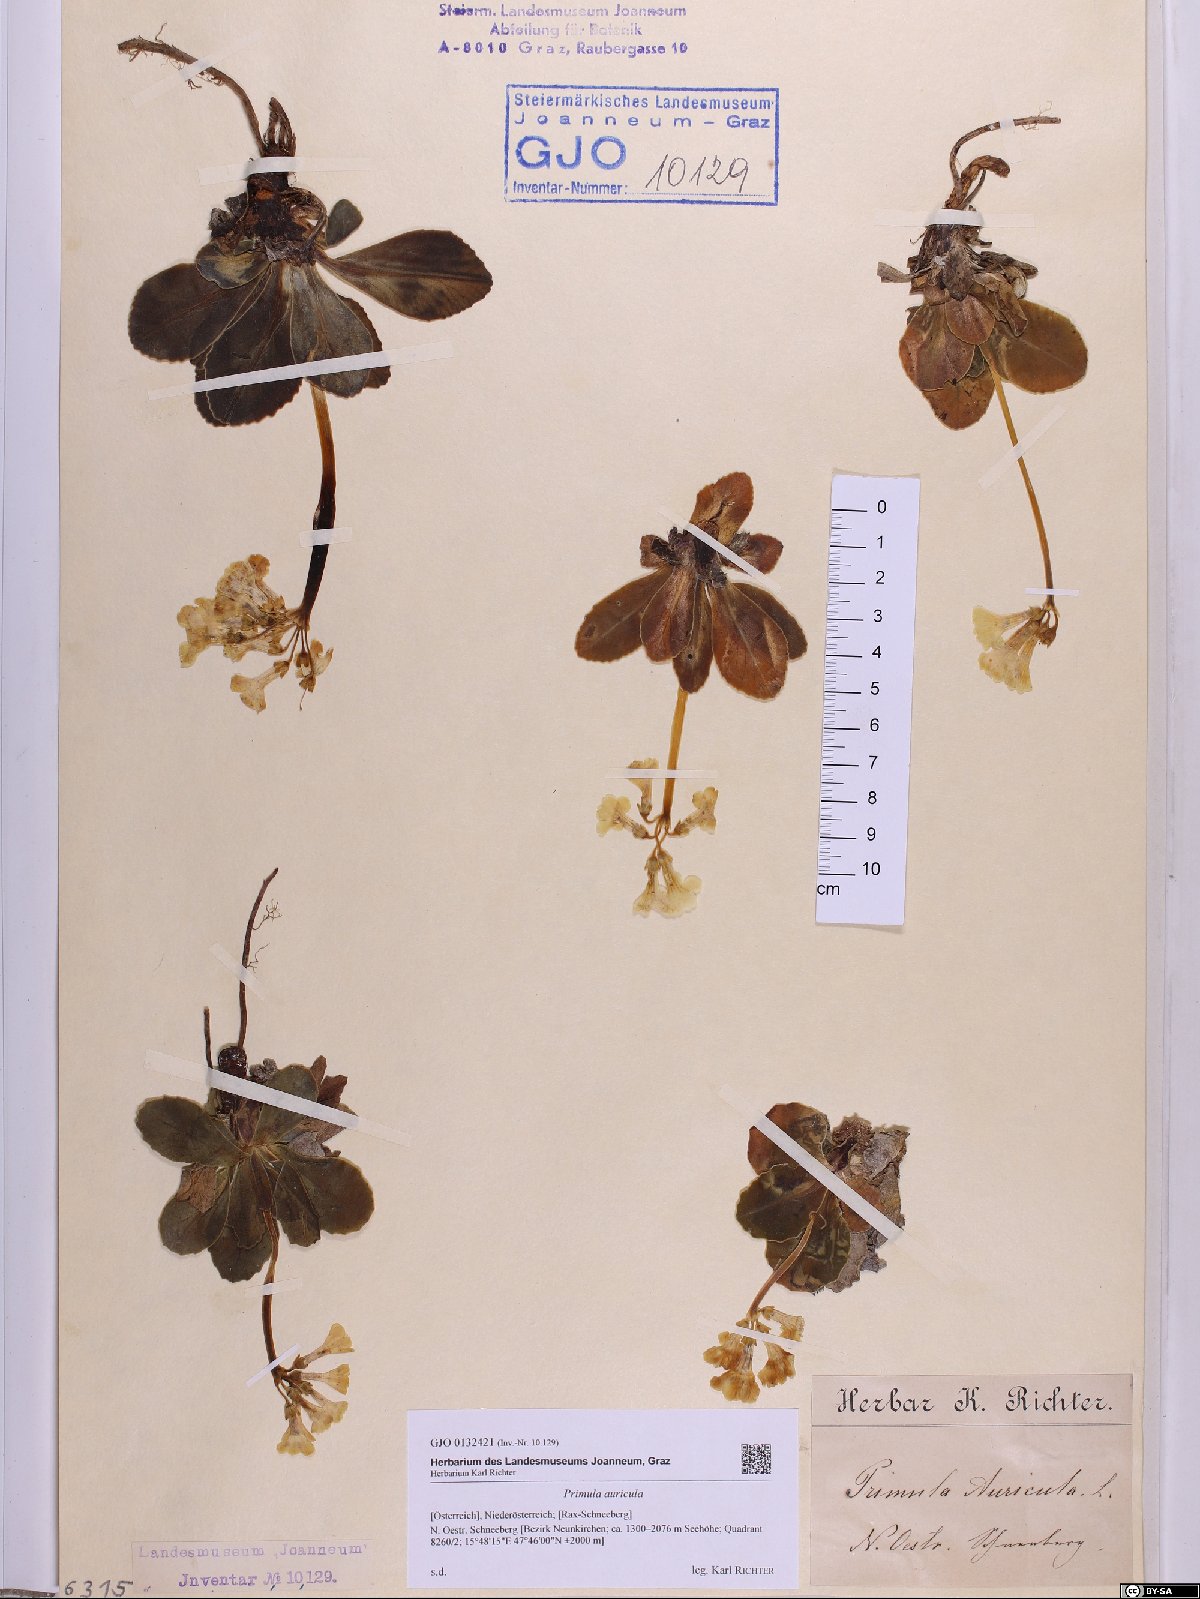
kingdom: Plantae
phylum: Tracheophyta
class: Magnoliopsida
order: Ericales
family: Primulaceae
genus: Primula
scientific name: Primula auricula
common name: Auricula
